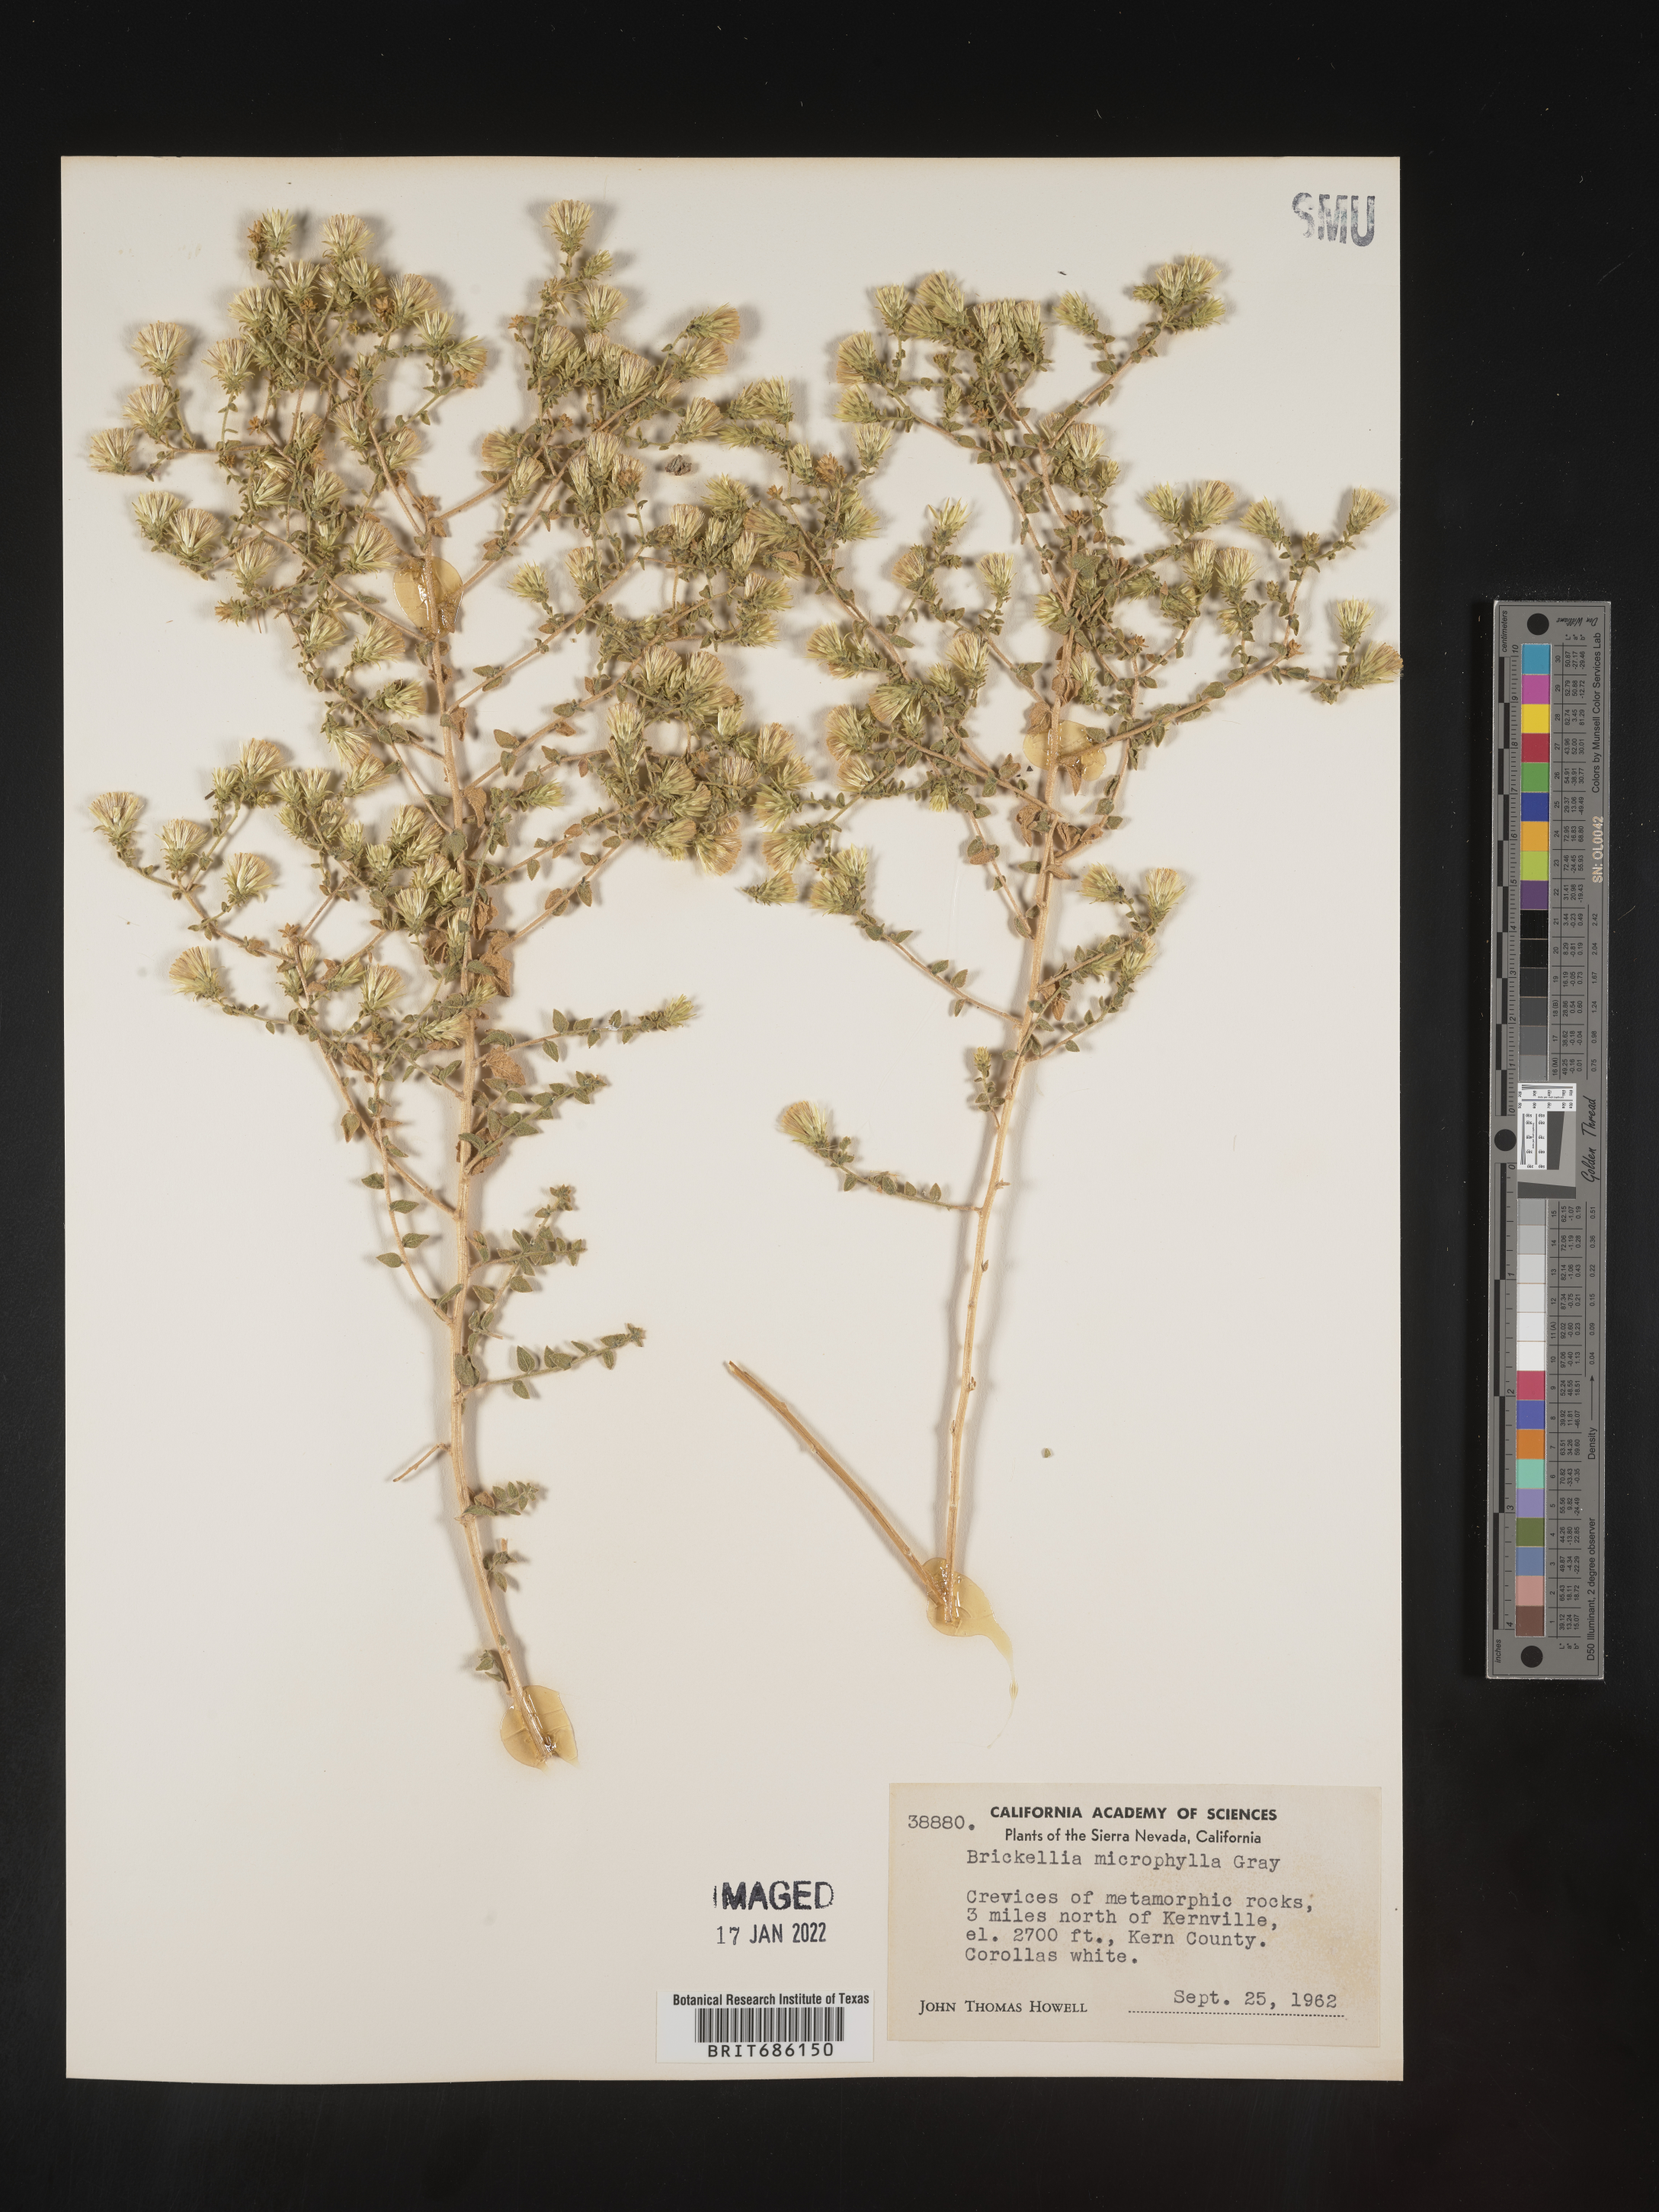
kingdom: Plantae
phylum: Tracheophyta
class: Magnoliopsida
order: Asterales
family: Asteraceae
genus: Brickellia
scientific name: Brickellia microphylla
